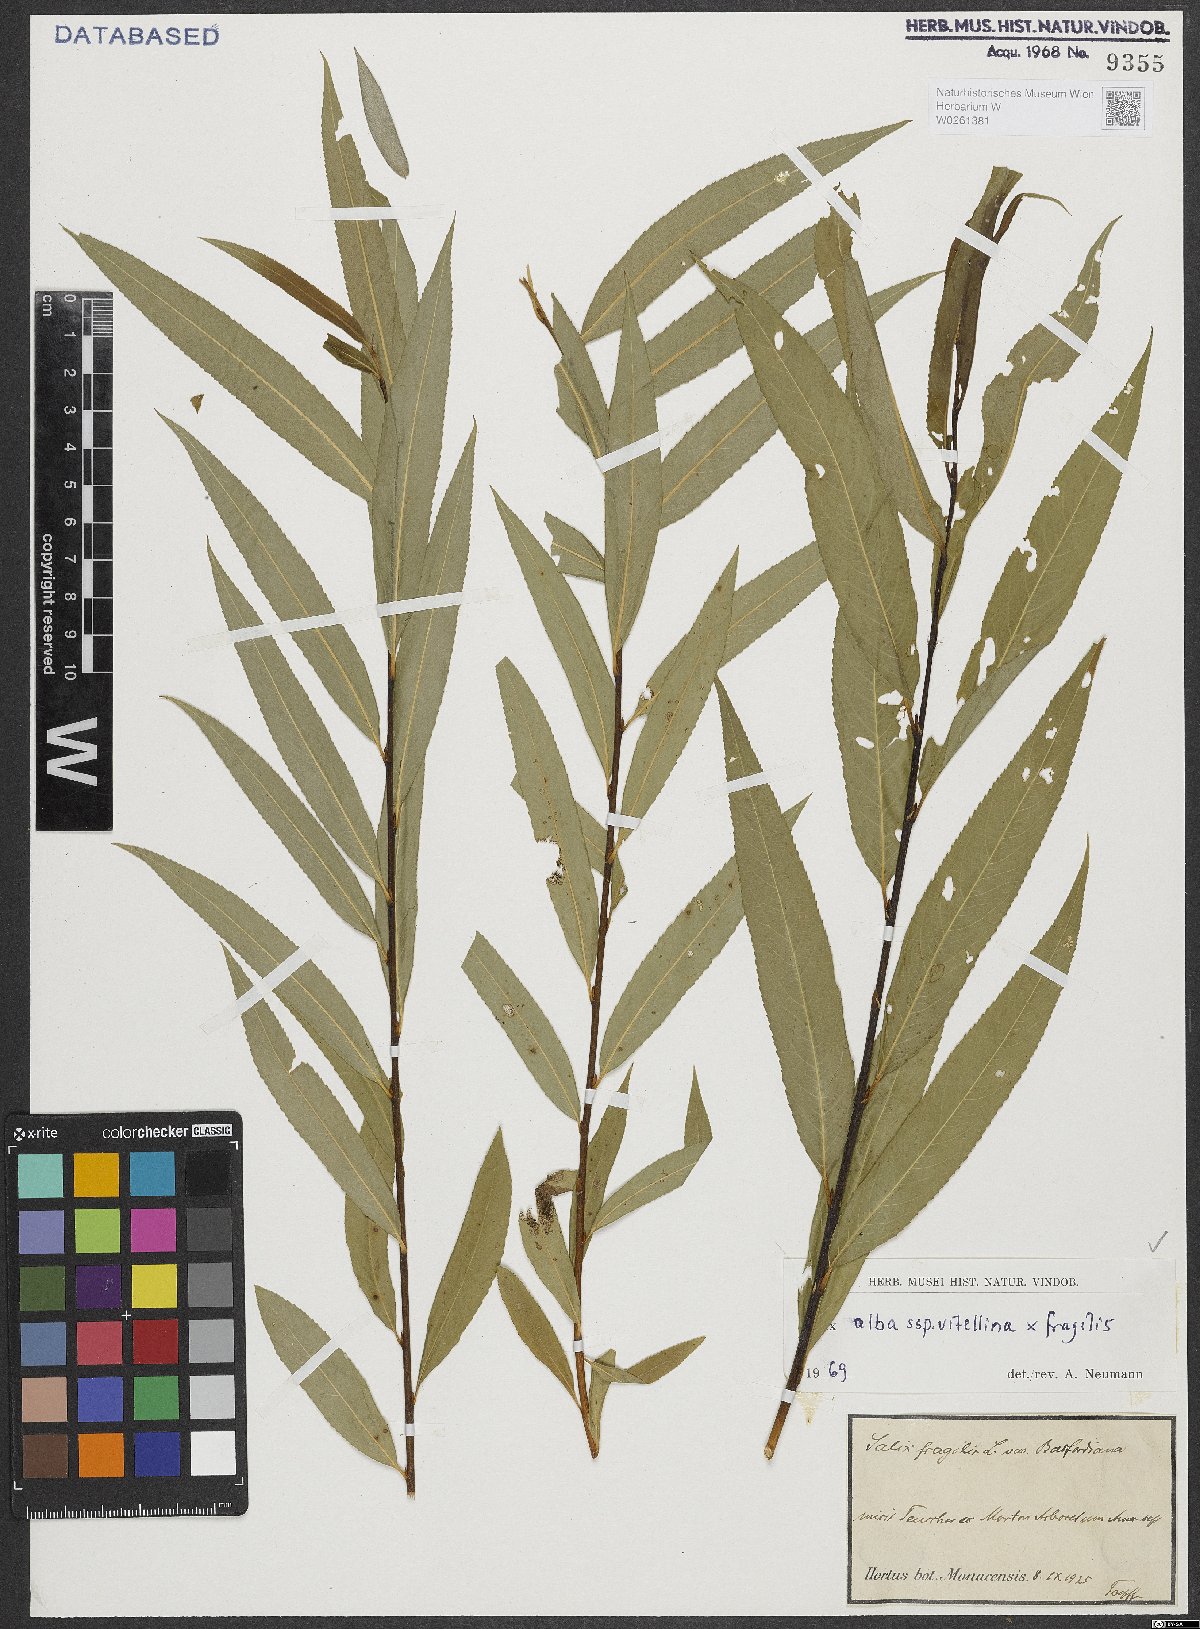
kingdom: Plantae
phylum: Tracheophyta
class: Magnoliopsida
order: Malpighiales
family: Salicaceae
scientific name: Salicaceae
